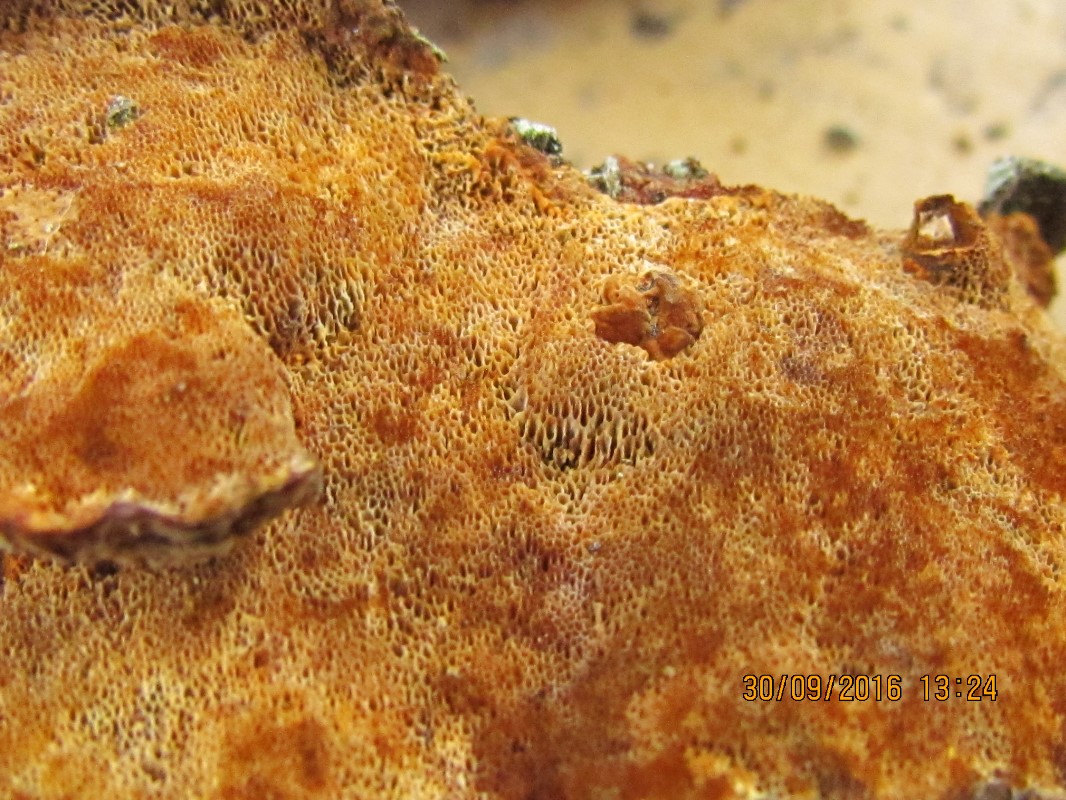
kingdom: Fungi
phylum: Basidiomycota
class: Agaricomycetes
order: Hymenochaetales
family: Hymenochaetaceae
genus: Xanthoporia
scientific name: Xanthoporia radiata
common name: elle-spejlporesvamp
